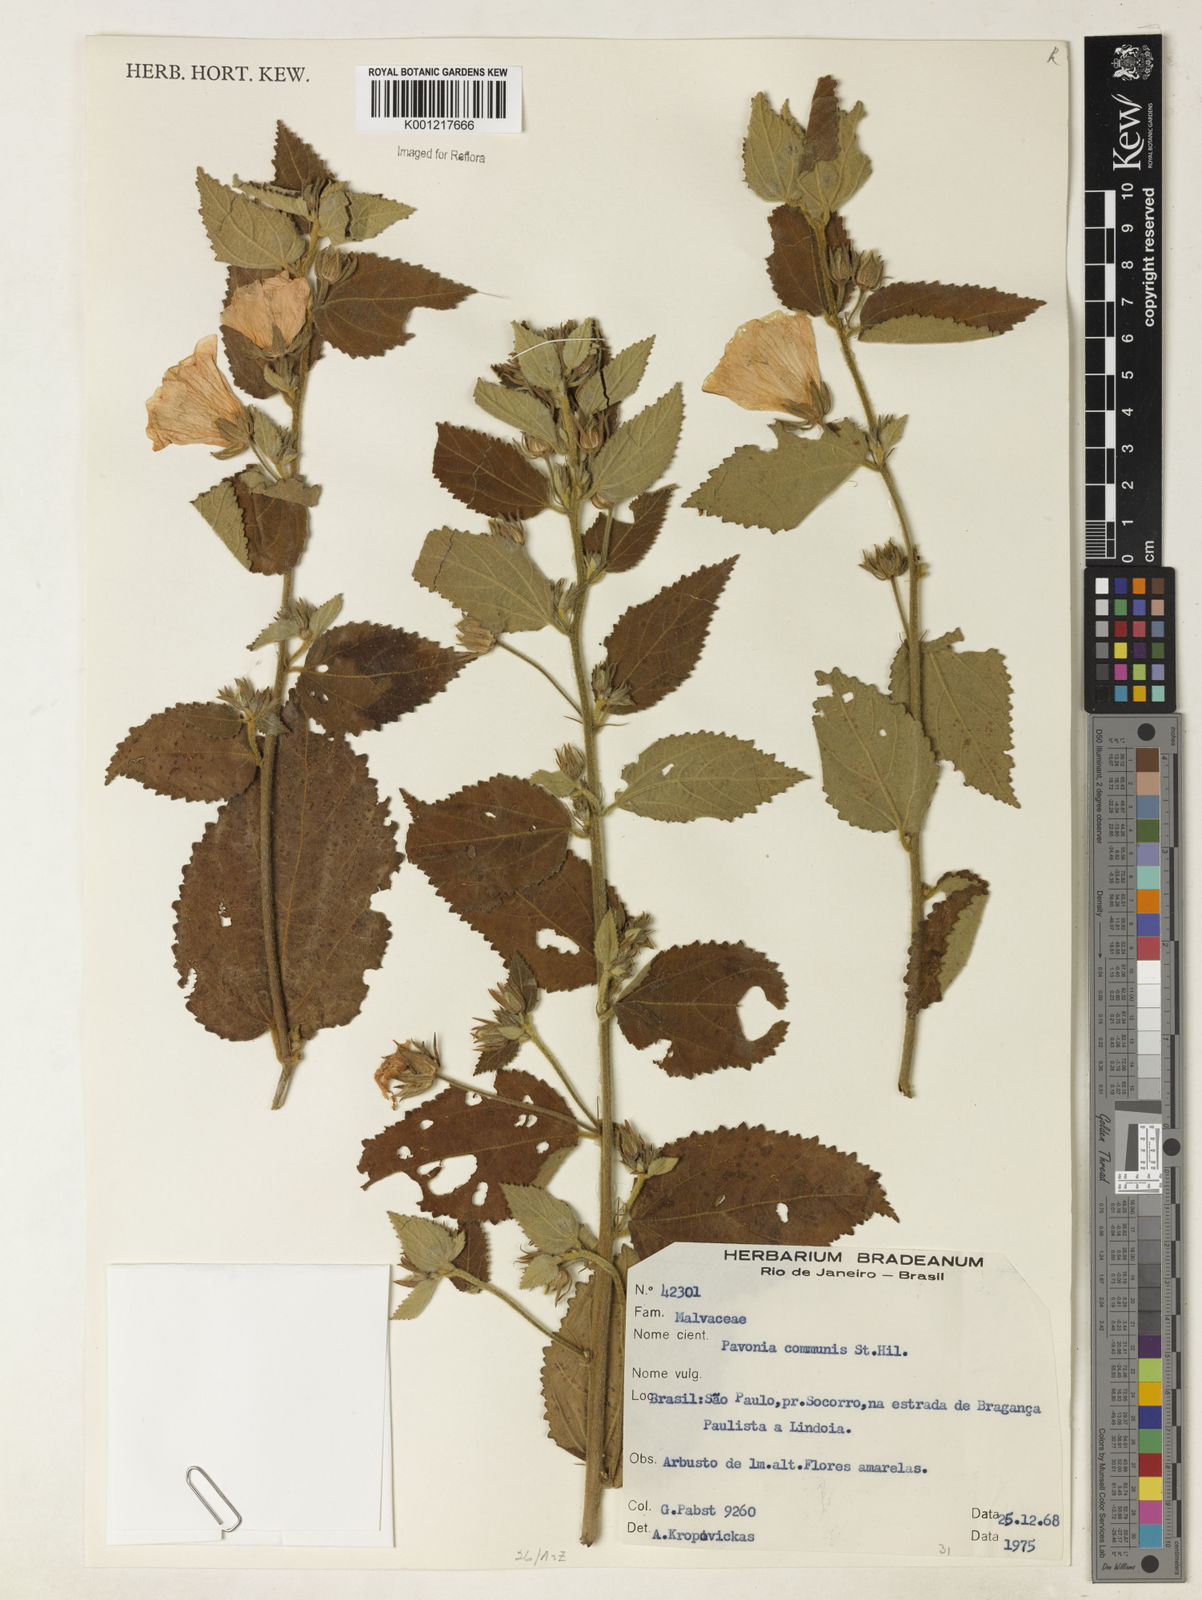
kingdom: Plantae
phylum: Tracheophyta
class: Magnoliopsida
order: Malvales
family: Malvaceae
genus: Pavonia
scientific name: Pavonia communis
